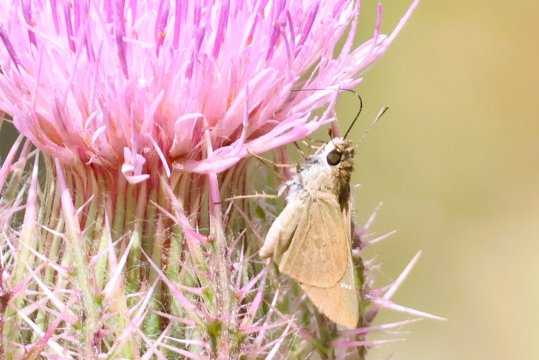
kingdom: Animalia
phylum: Arthropoda
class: Insecta
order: Lepidoptera
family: Hesperiidae
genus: Lerodea
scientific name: Lerodea eufala
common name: Eufala Skipper
